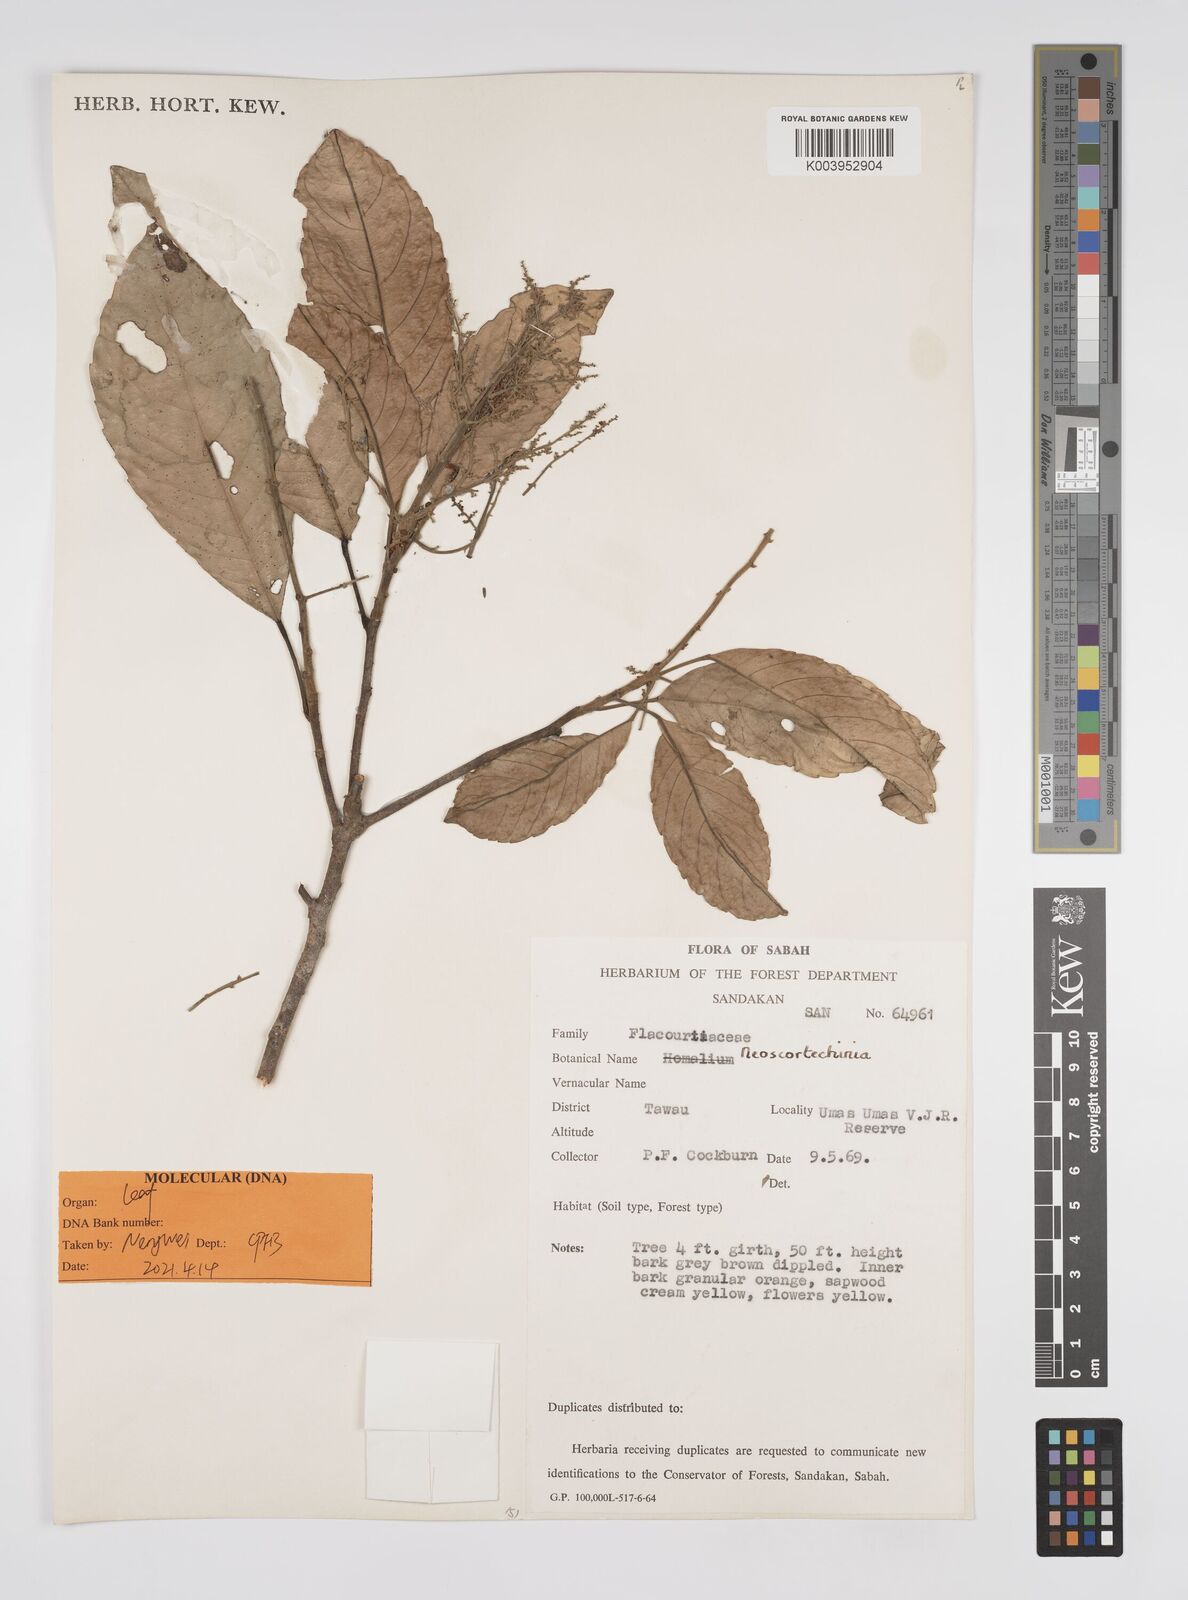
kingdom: Plantae
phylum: Tracheophyta
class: Magnoliopsida
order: Malpighiales
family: Euphorbiaceae
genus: Neoscortechinia
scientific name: Neoscortechinia philippinensis
